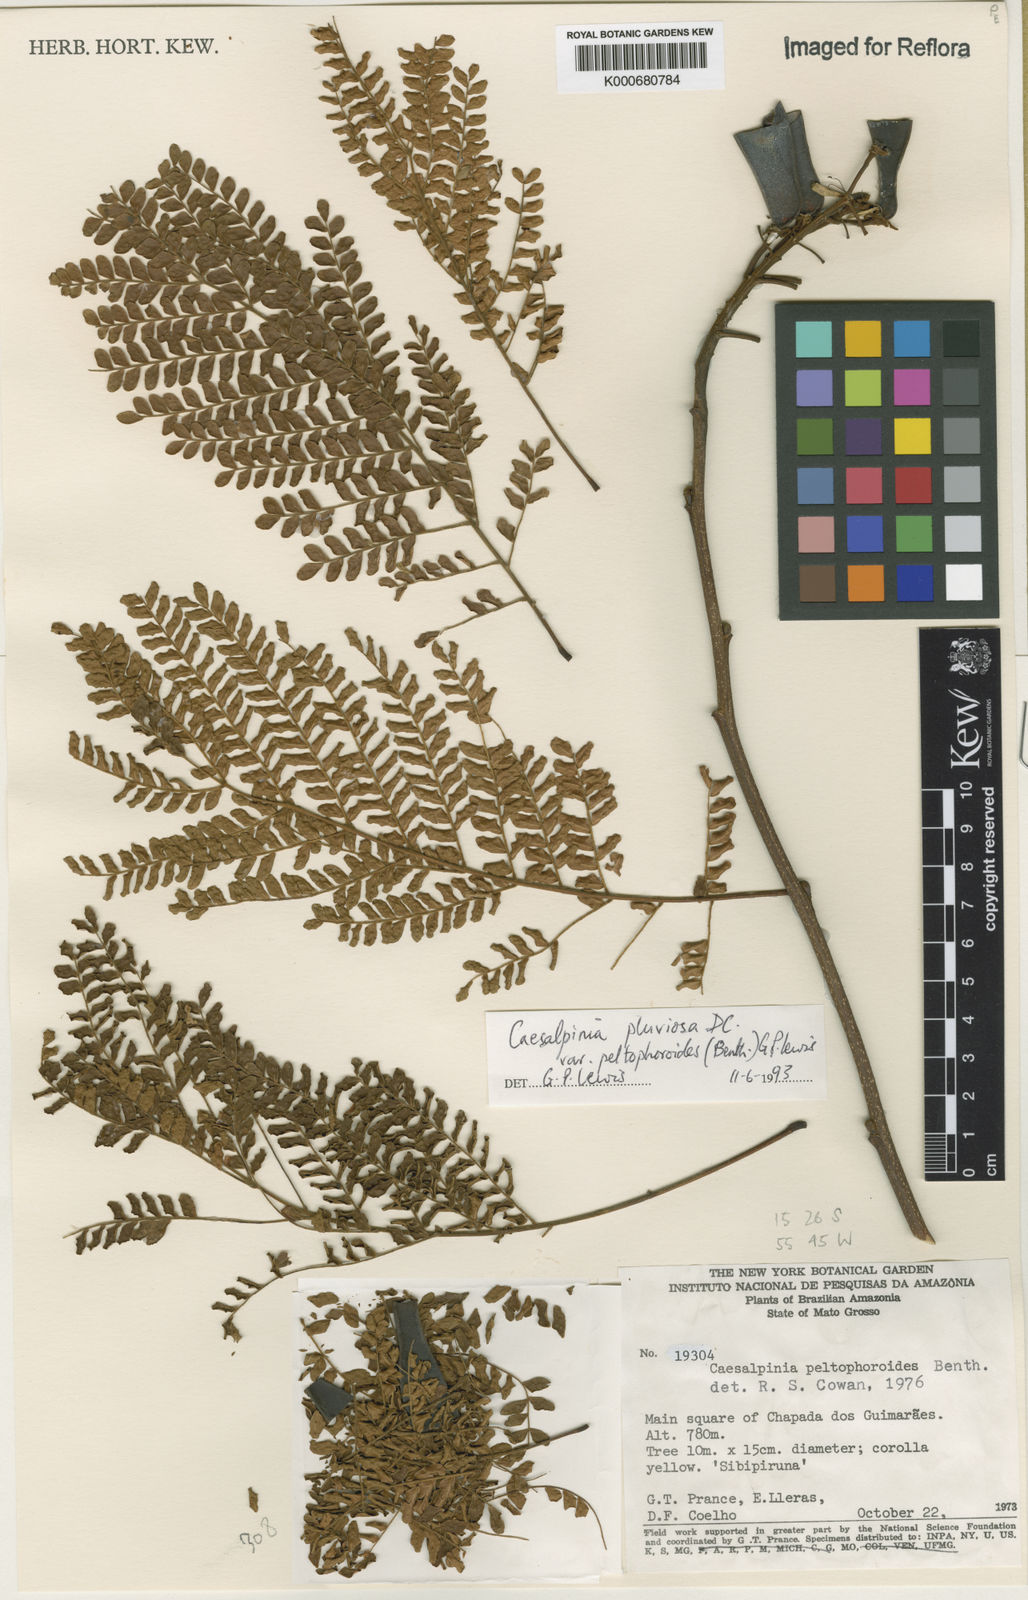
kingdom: Plantae
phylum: Tracheophyta
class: Magnoliopsida
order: Fabales
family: Fabaceae
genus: Cenostigma
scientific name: Cenostigma pluviosum
